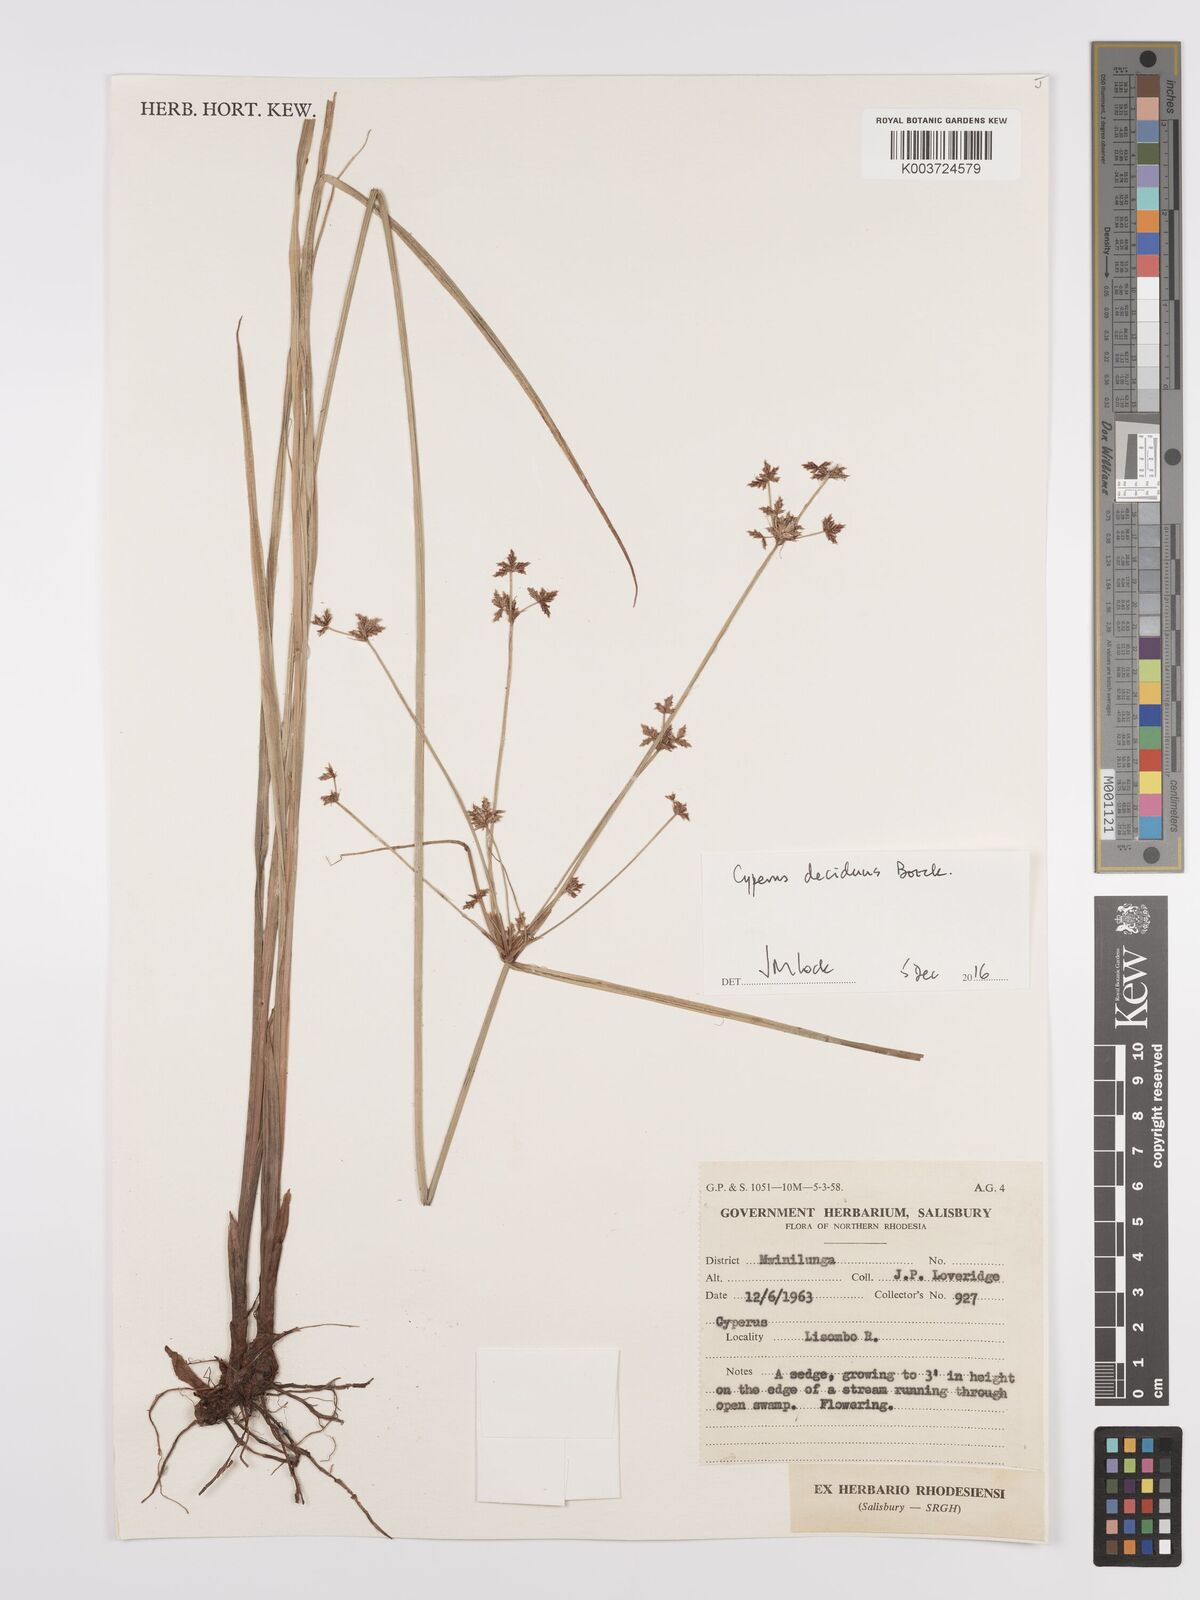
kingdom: Plantae
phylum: Tracheophyta
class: Liliopsida
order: Poales
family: Cyperaceae
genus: Cyperus
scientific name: Cyperus deciduus
